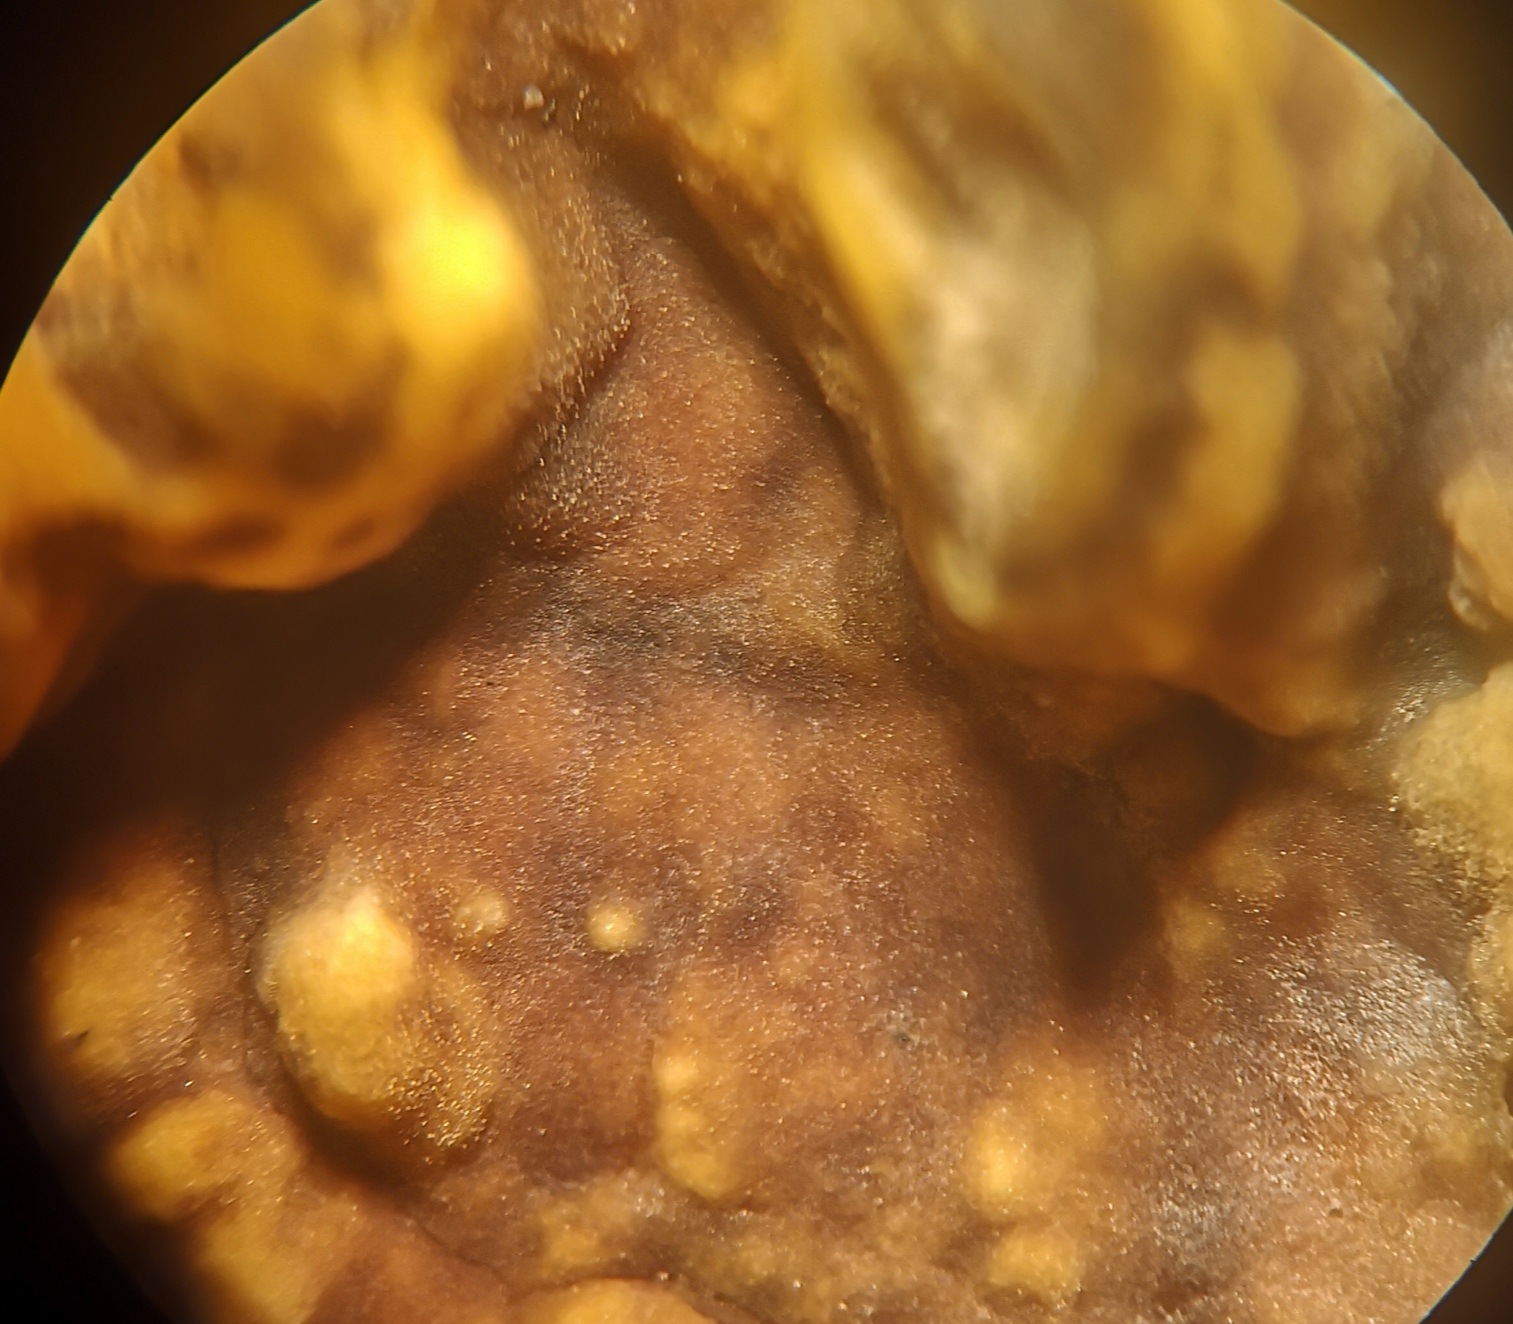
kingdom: Fungi
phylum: Basidiomycota
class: Agaricomycetes
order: Russulales
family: Stereaceae
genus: Stereum
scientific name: Stereum hirsutum
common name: håret lædersvamp
